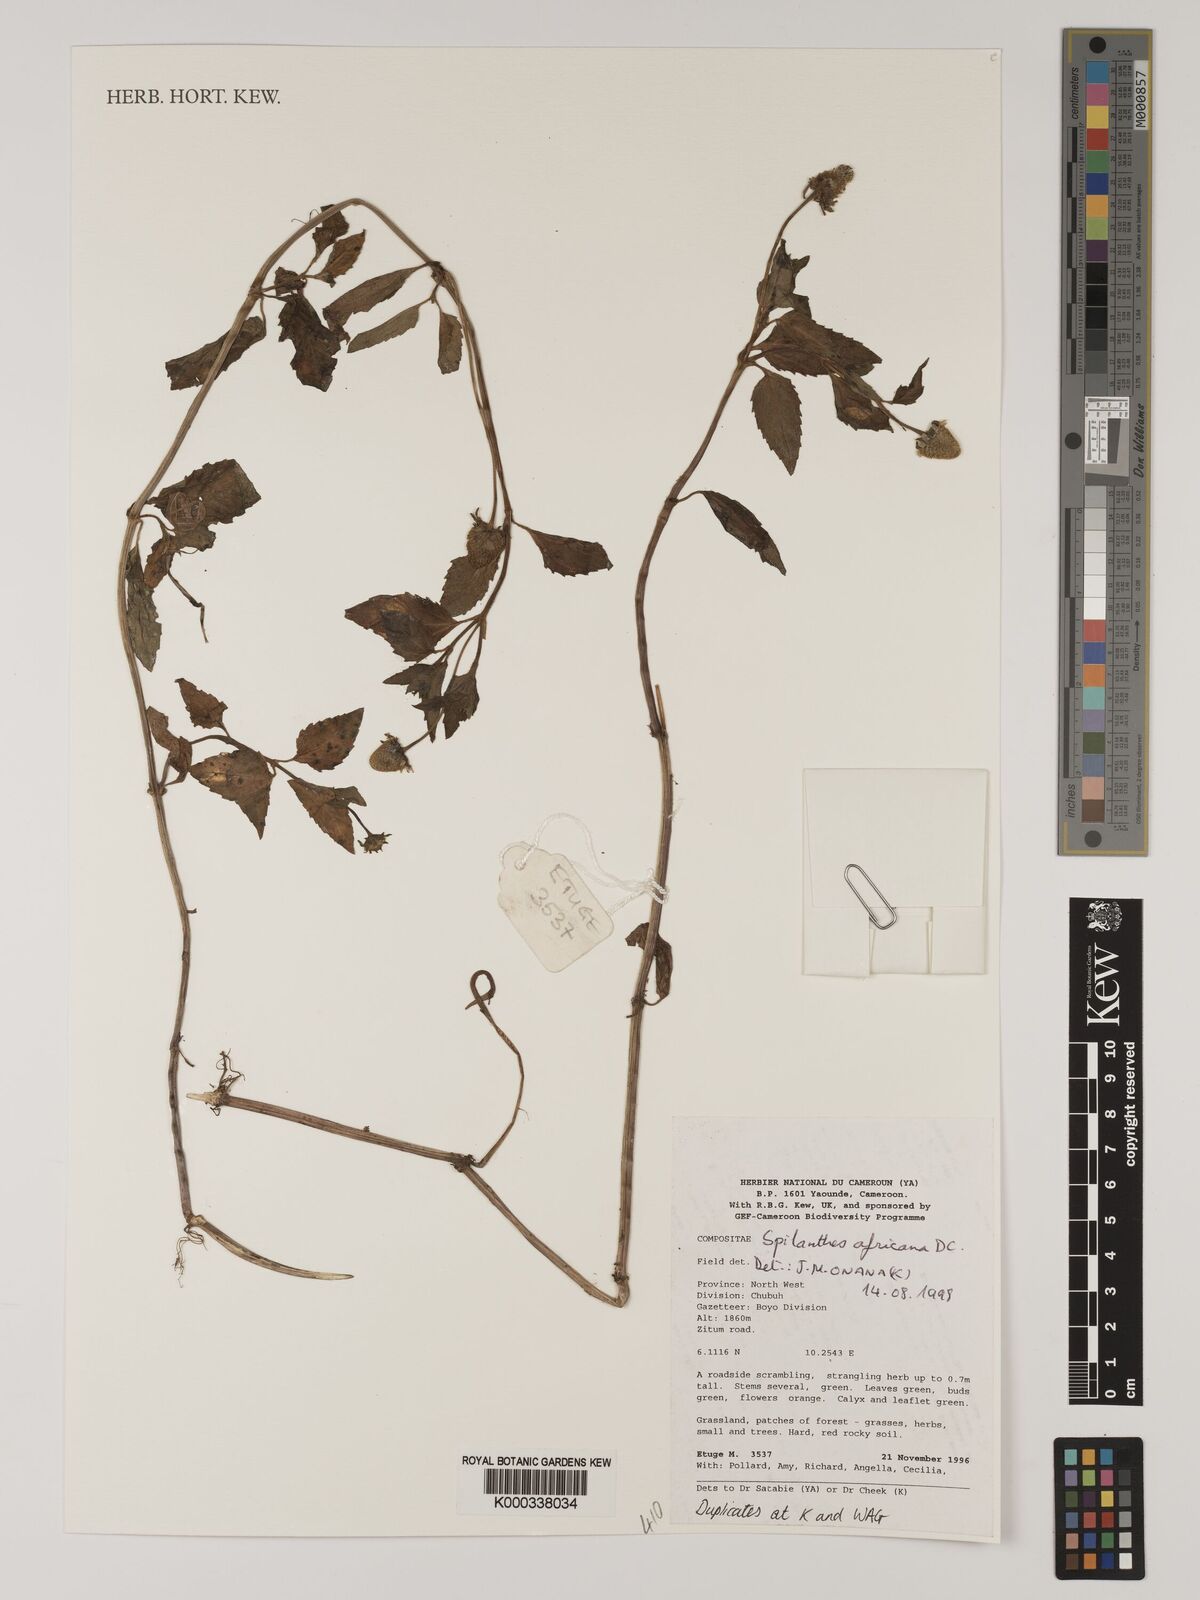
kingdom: Plantae
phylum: Tracheophyta
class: Magnoliopsida
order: Asterales
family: Asteraceae
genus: Acmella
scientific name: Acmella caulirhiza
